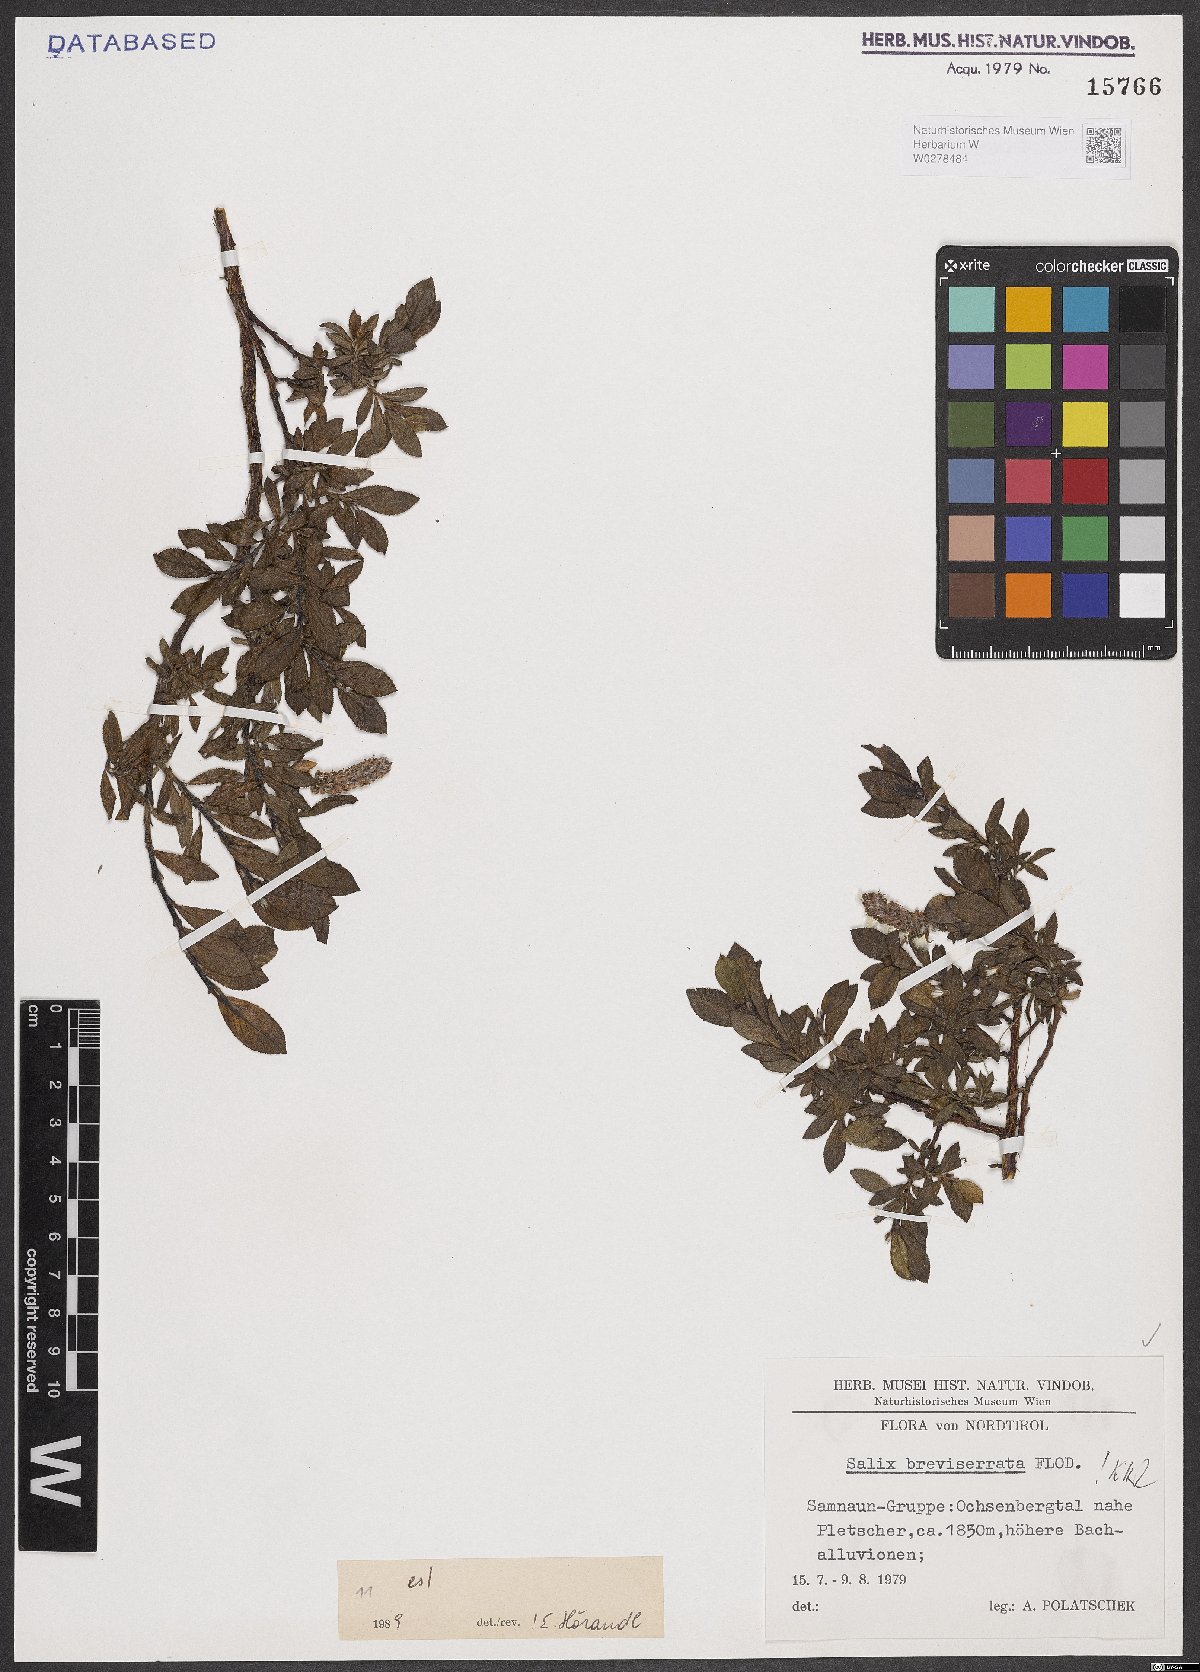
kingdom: Plantae
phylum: Tracheophyta
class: Magnoliopsida
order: Malpighiales
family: Salicaceae
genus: Salix
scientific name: Salix breviserrata
